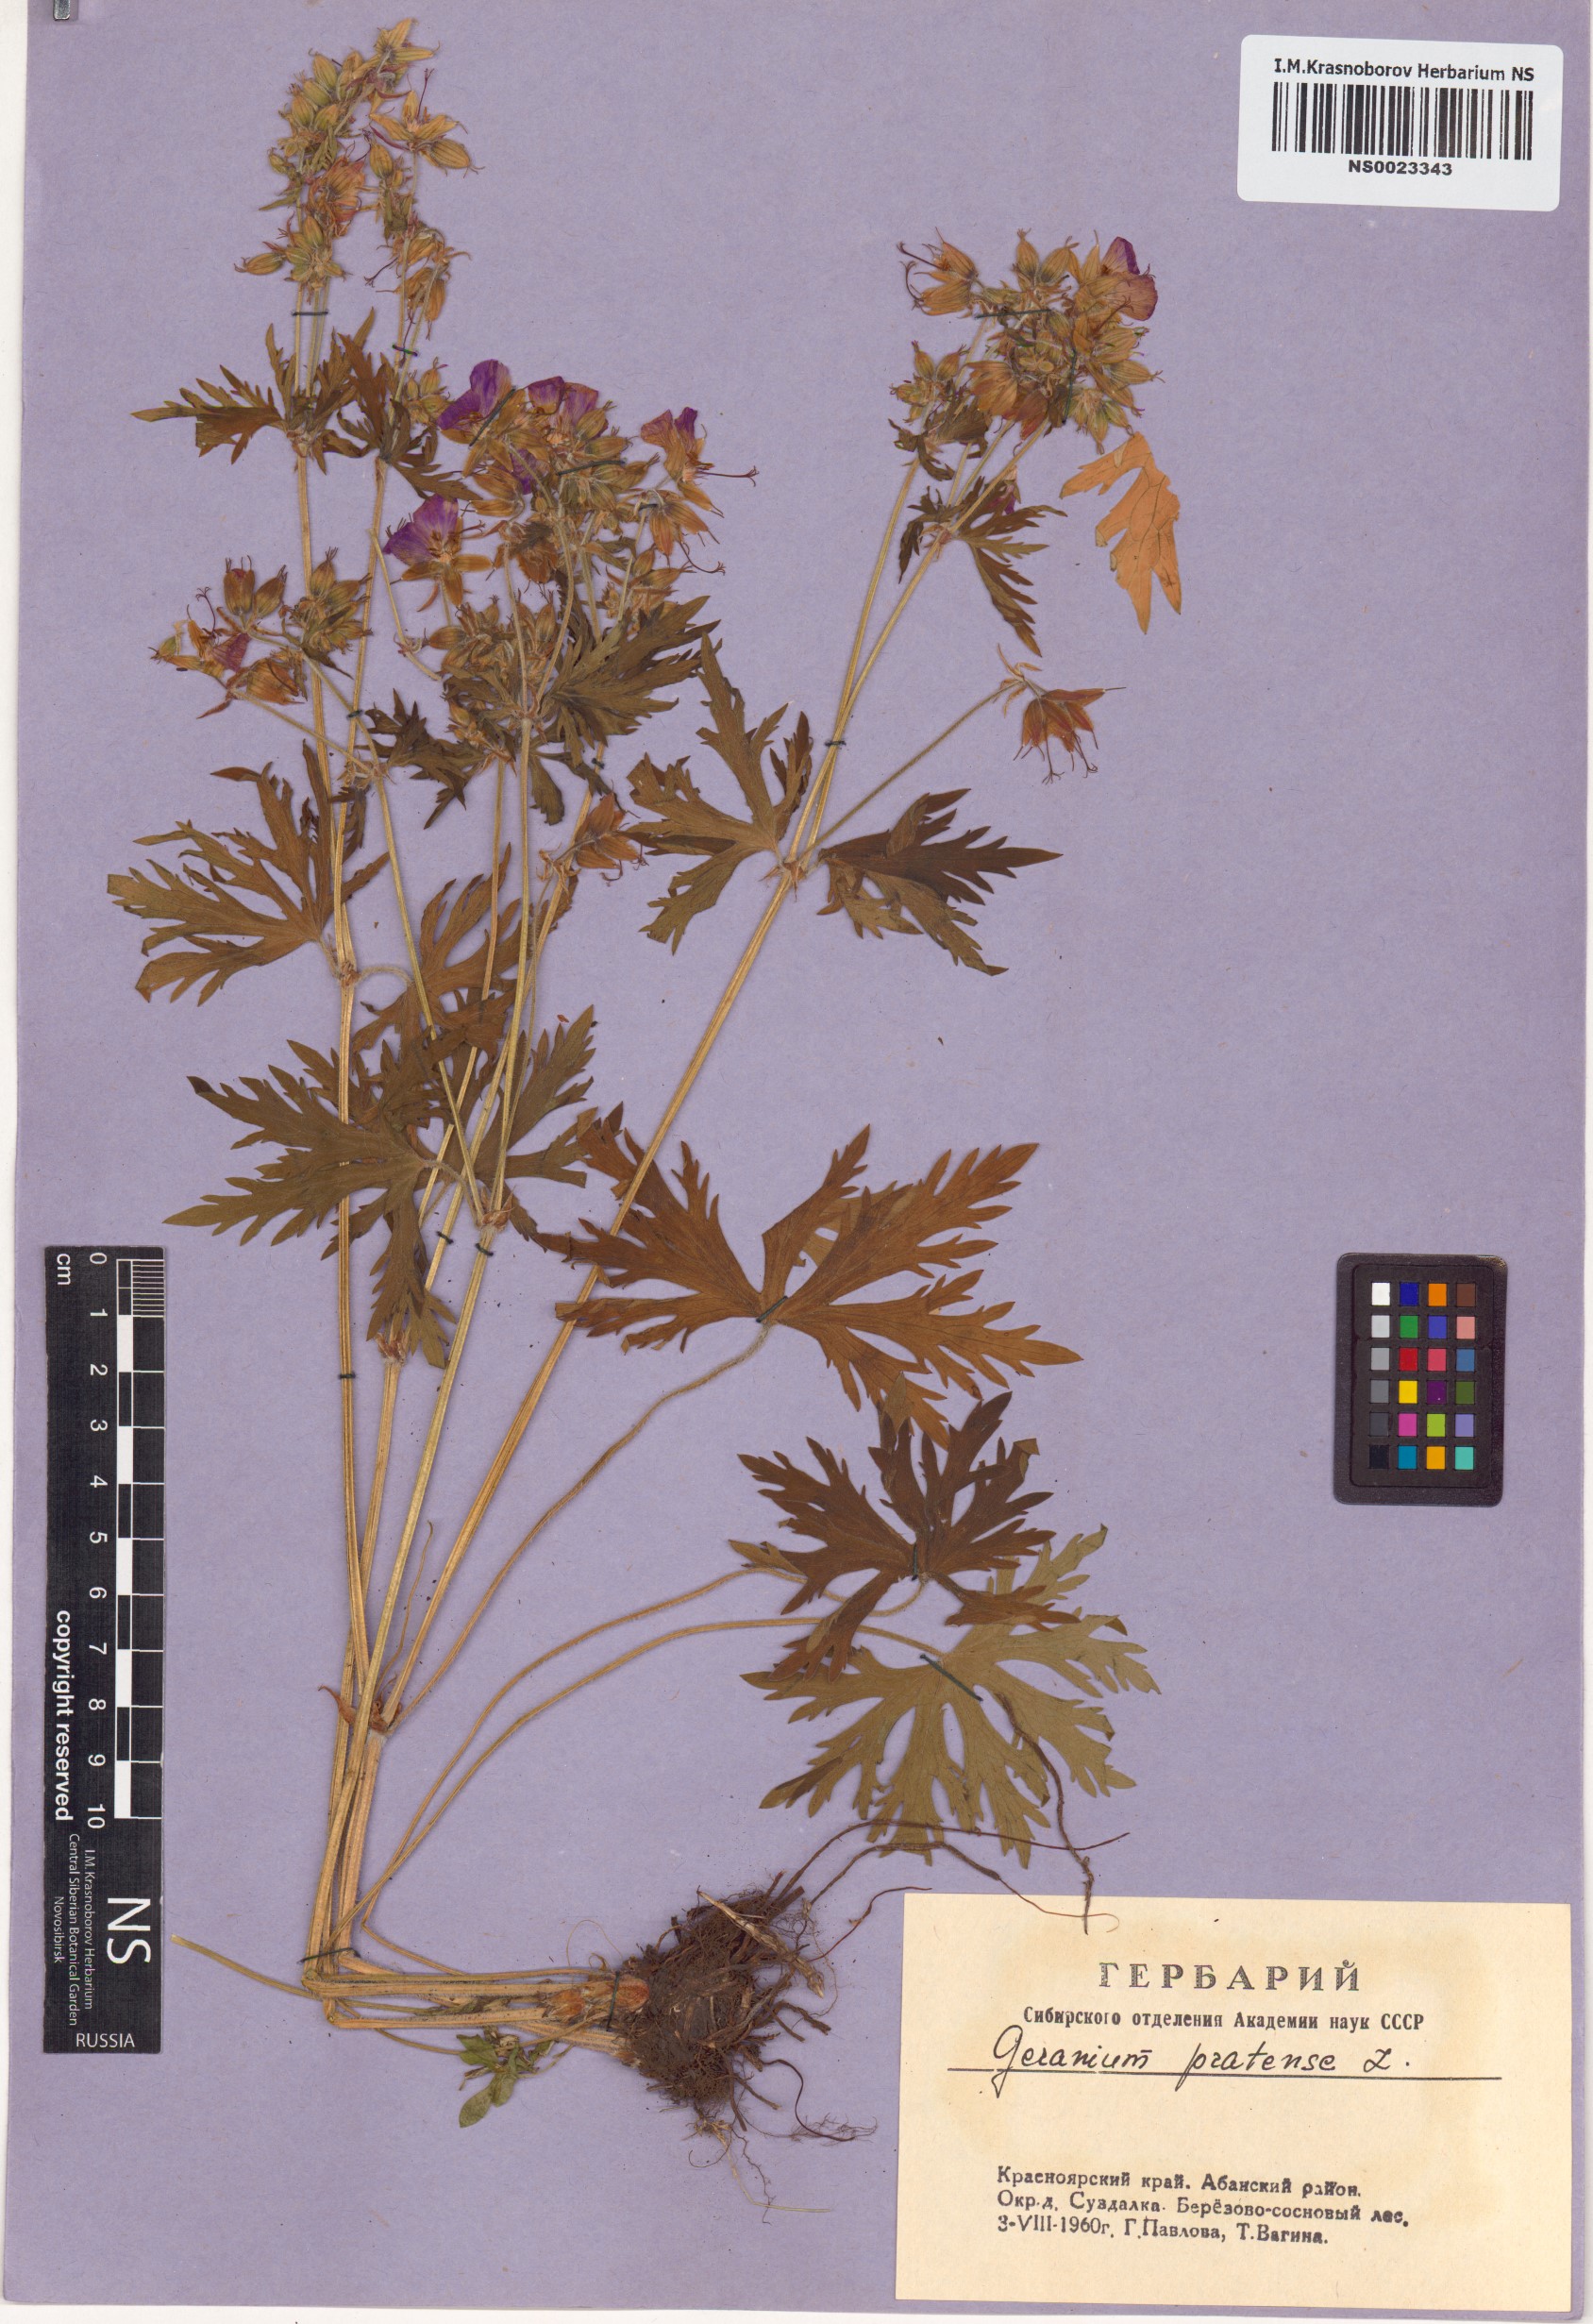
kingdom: Plantae
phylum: Tracheophyta
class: Magnoliopsida
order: Geraniales
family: Geraniaceae
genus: Geranium
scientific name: Geranium pratense
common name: Meadow crane's-bill
